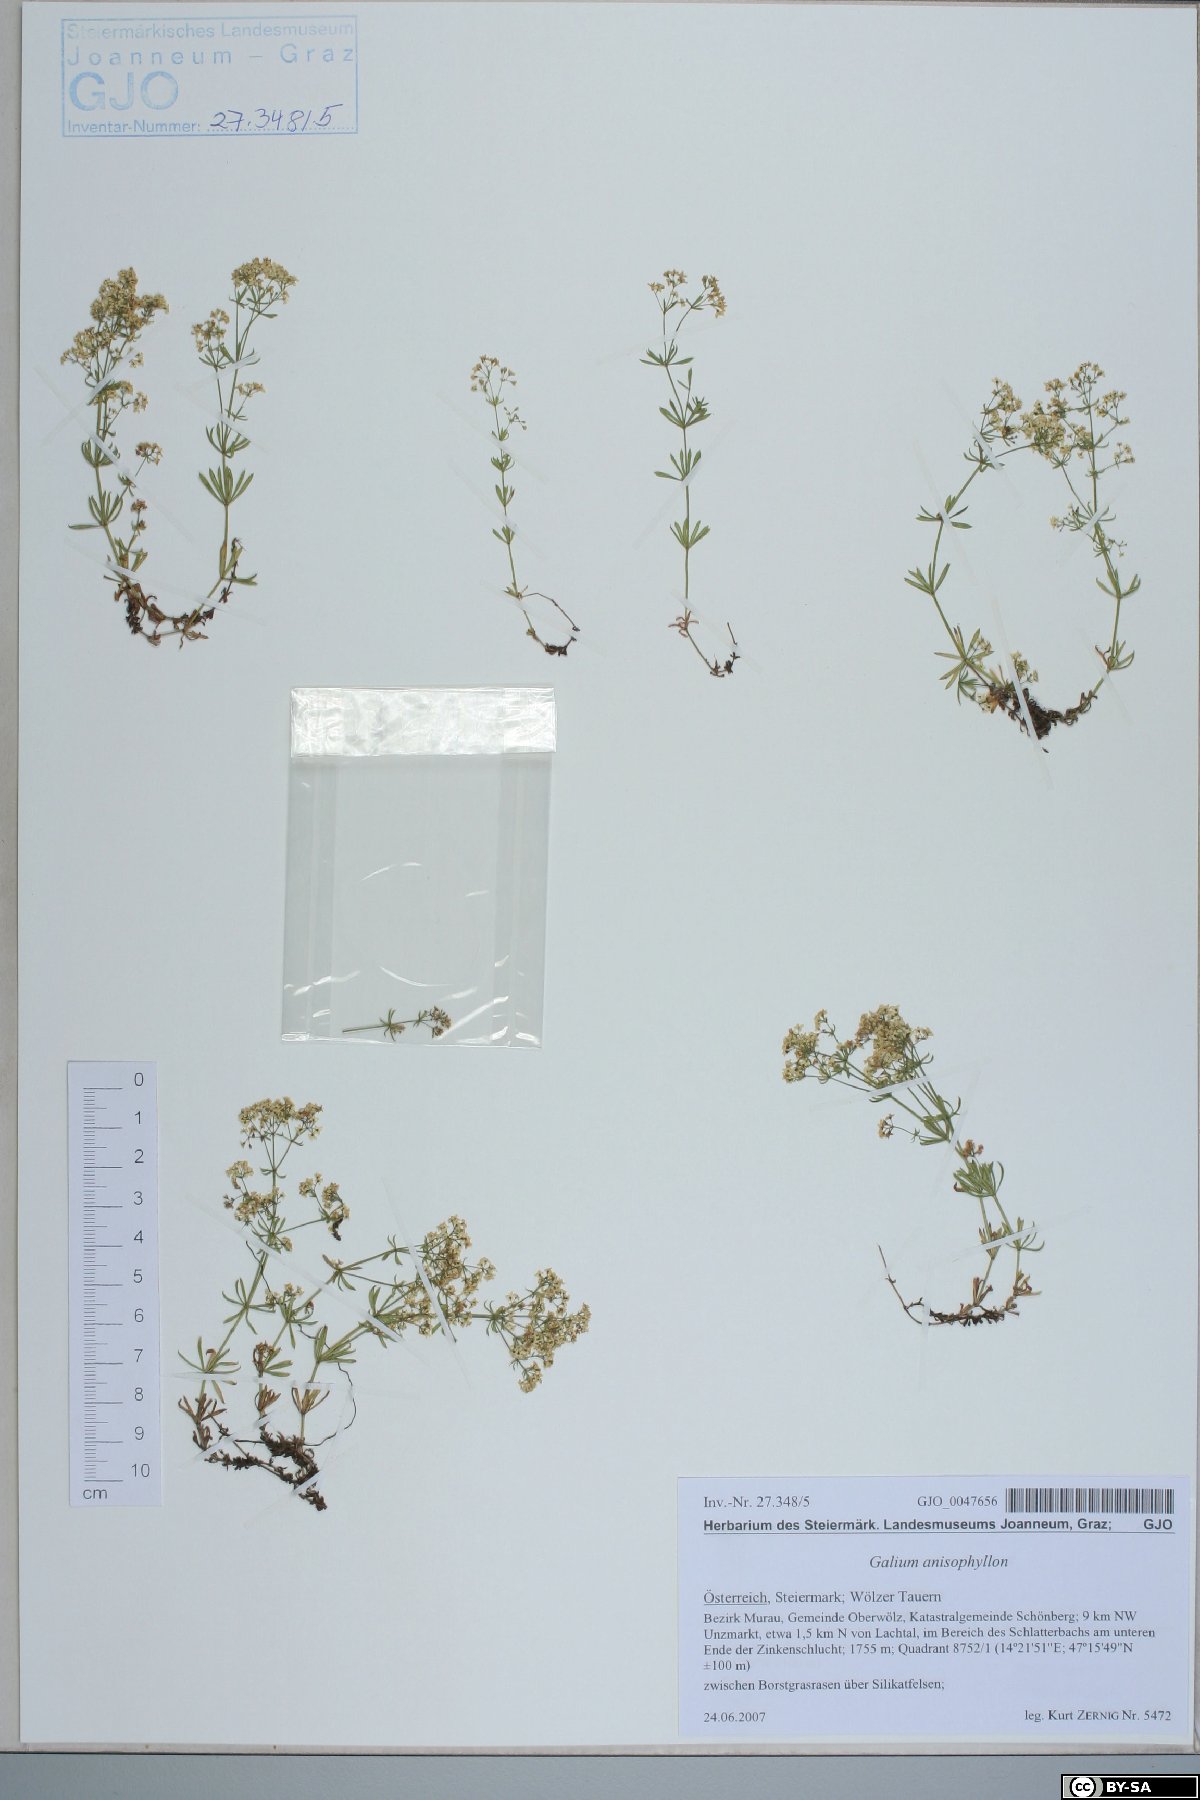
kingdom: Plantae
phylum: Tracheophyta
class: Magnoliopsida
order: Gentianales
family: Rubiaceae
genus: Galium
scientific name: Galium anisophyllon
